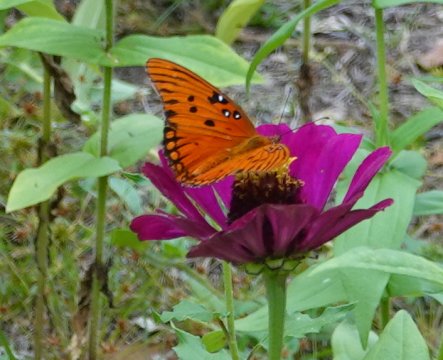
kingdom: Animalia
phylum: Arthropoda
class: Insecta
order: Lepidoptera
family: Nymphalidae
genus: Dione
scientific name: Dione vanillae
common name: Gulf Fritillary
